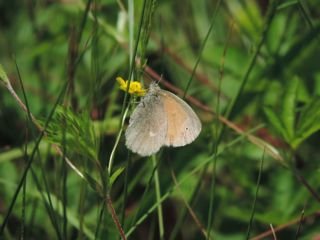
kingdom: Animalia
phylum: Arthropoda
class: Insecta
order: Lepidoptera
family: Nymphalidae
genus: Coenonympha
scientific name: Coenonympha tullia
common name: Large Heath
